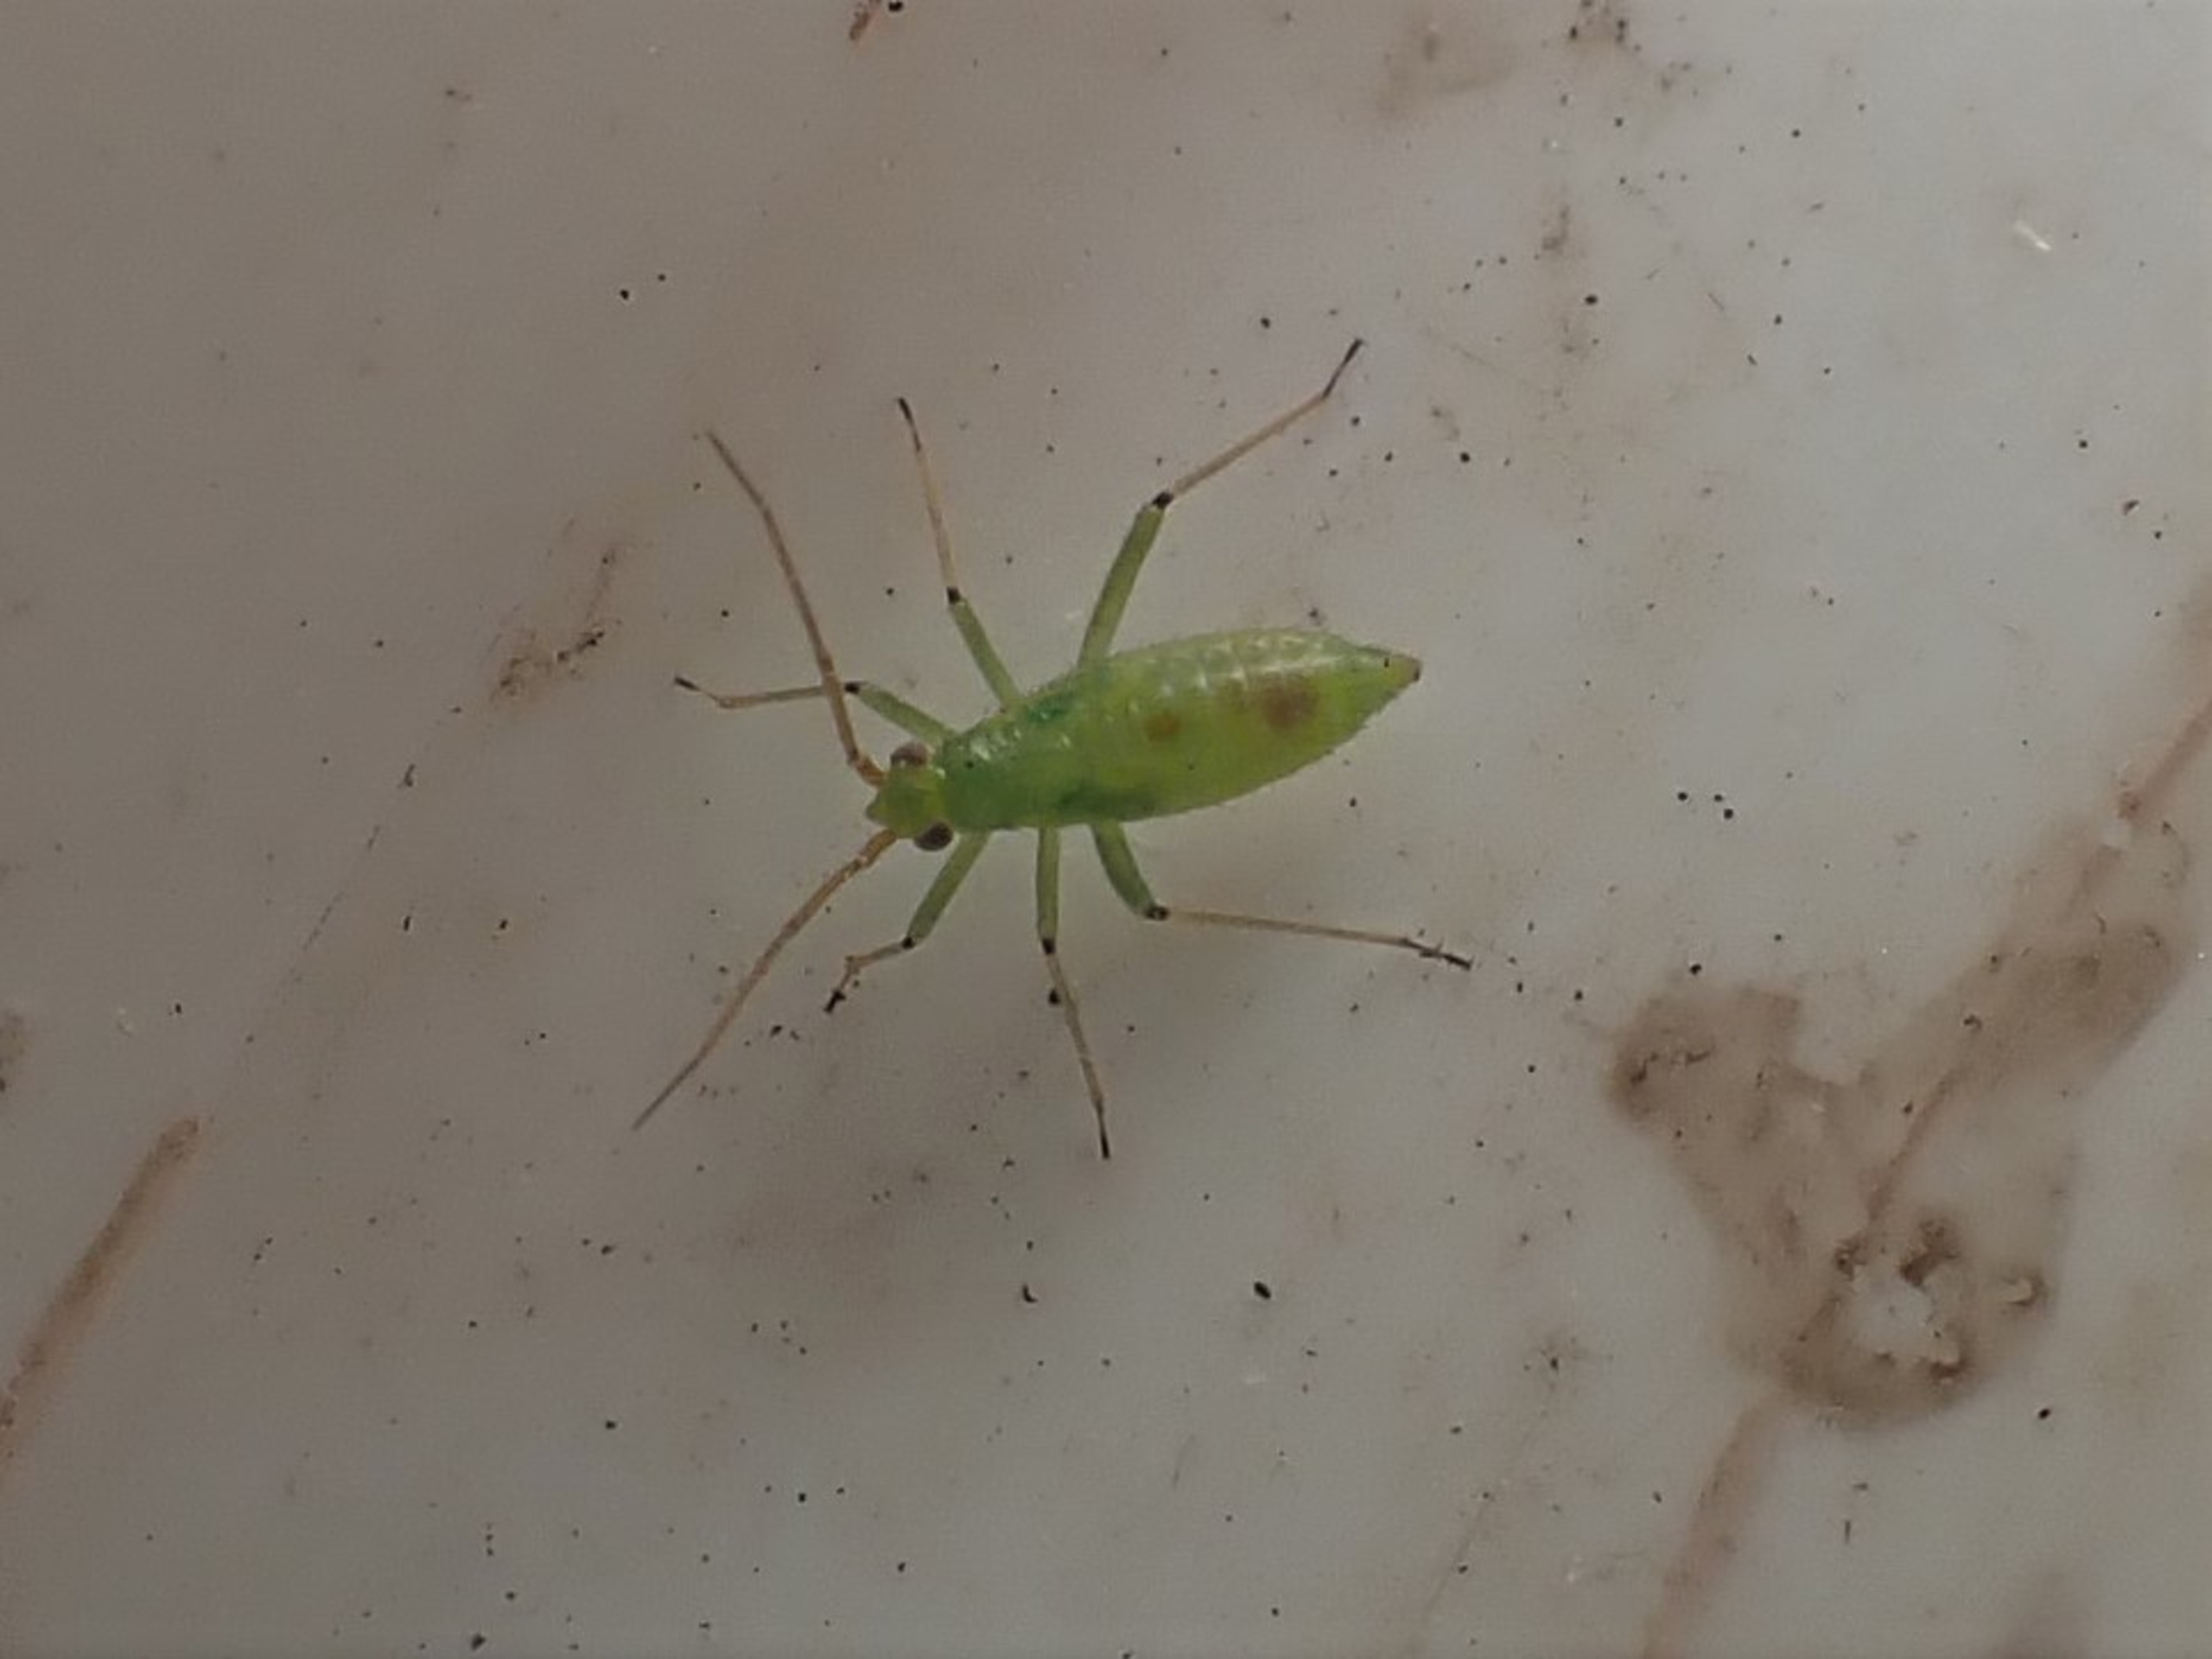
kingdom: Animalia
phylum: Arthropoda
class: Insecta
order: Hemiptera
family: Miridae
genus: Blepharidopterus
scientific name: Blepharidopterus angulatus
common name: Sortknæet blomstertæge
